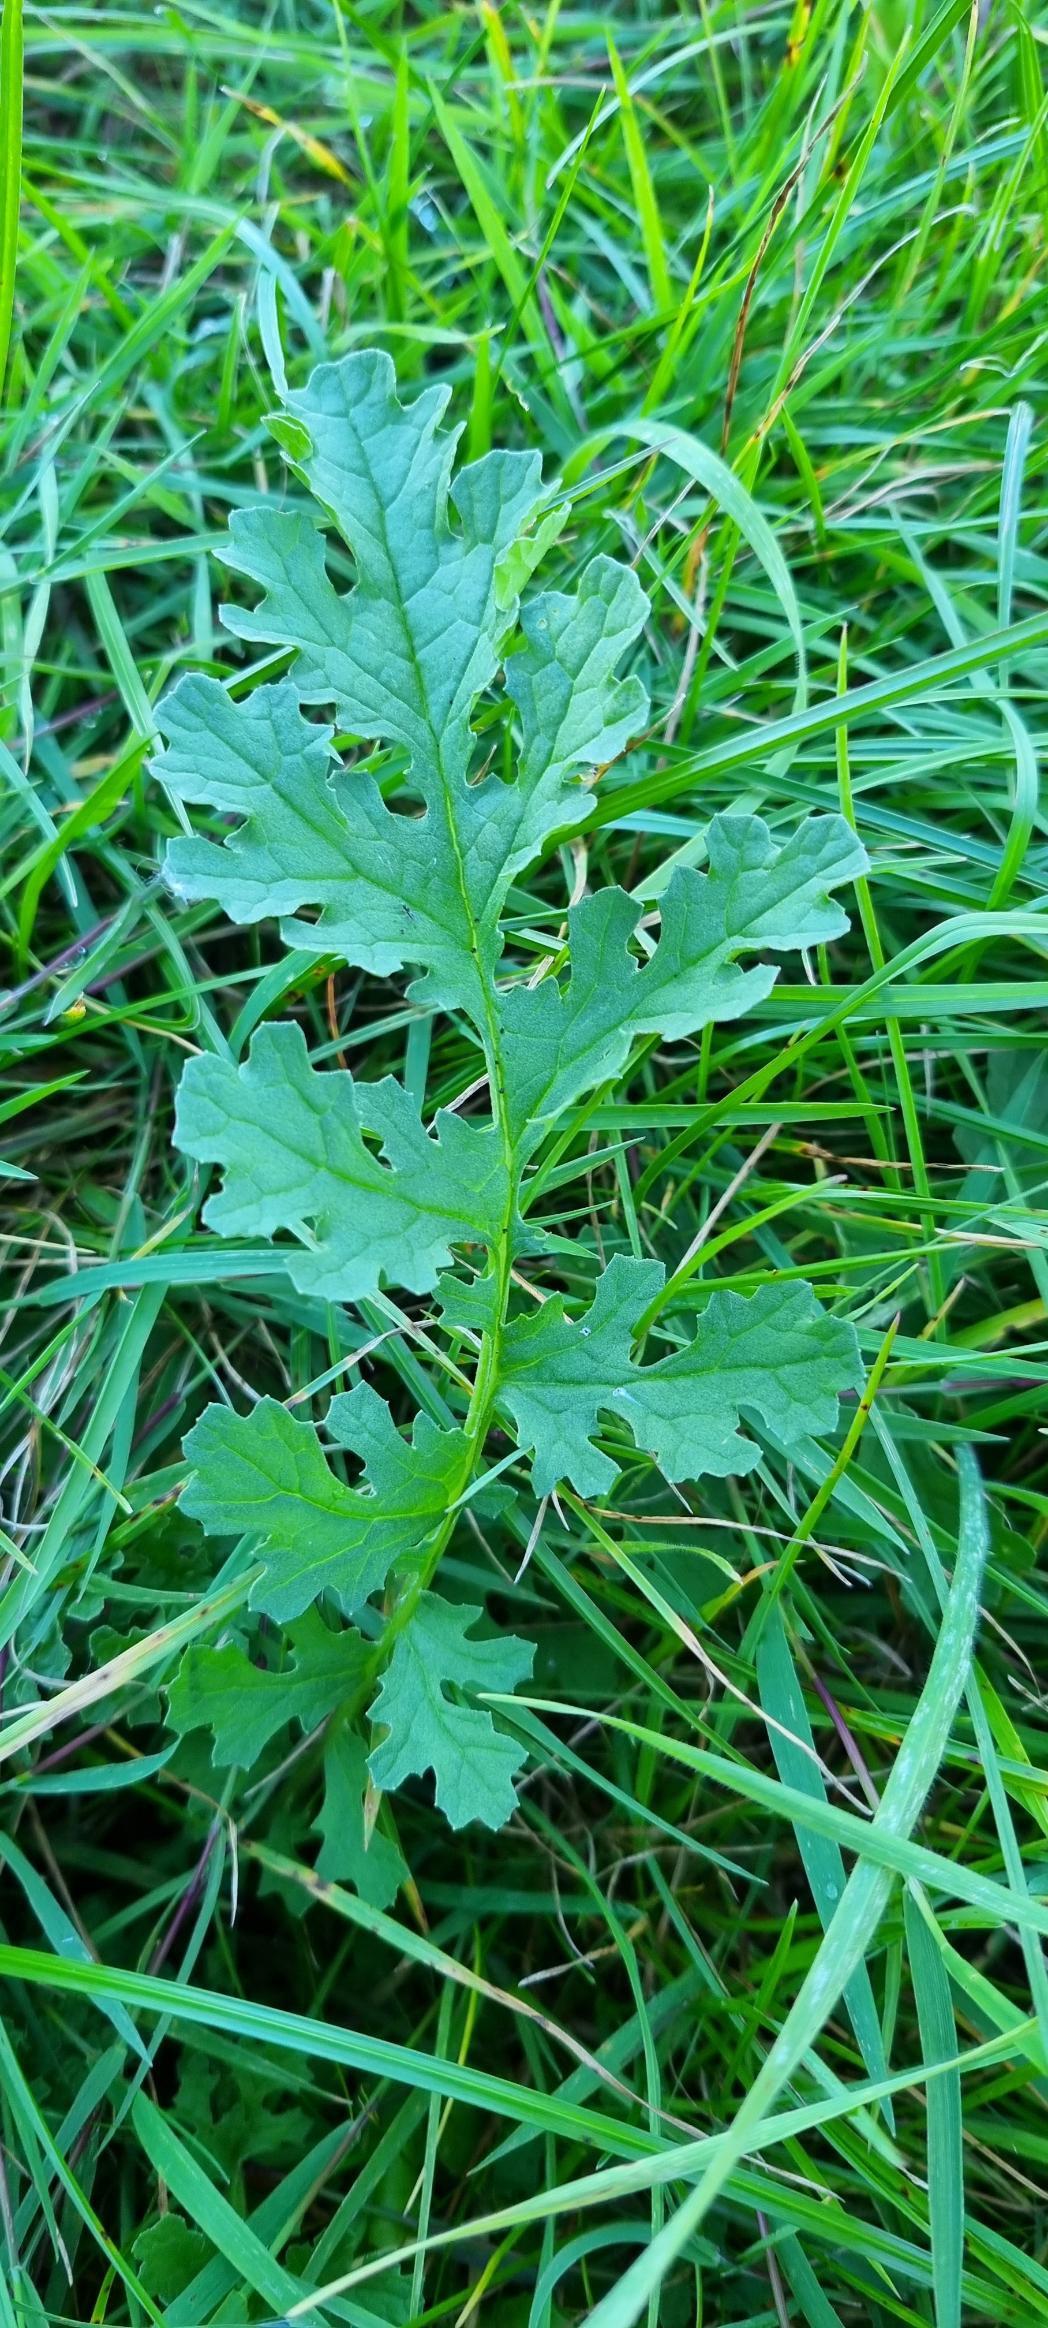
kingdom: Plantae
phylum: Tracheophyta
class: Magnoliopsida
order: Asterales
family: Asteraceae
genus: Jacobaea
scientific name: Jacobaea vulgaris
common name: Eng-brandbæger
